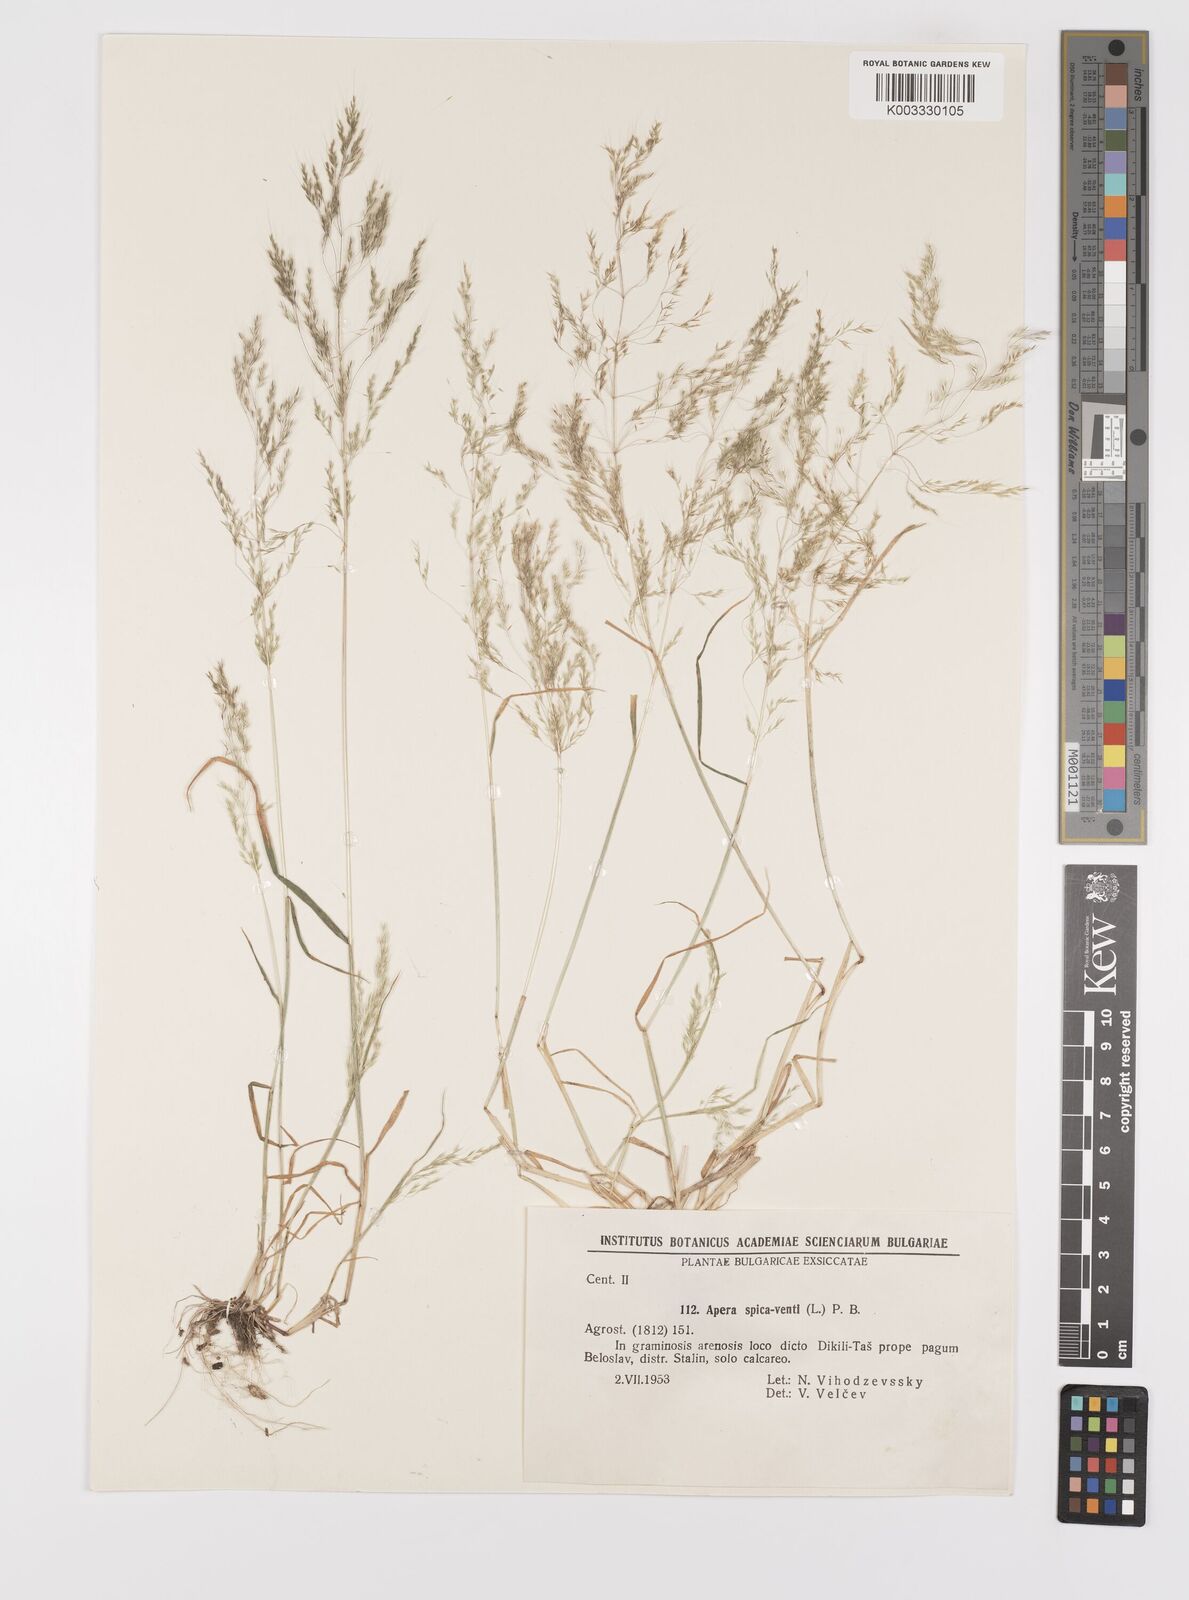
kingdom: Plantae
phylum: Tracheophyta
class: Liliopsida
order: Poales
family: Poaceae
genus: Apera
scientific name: Apera spica-venti
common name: Loose silky-bent
